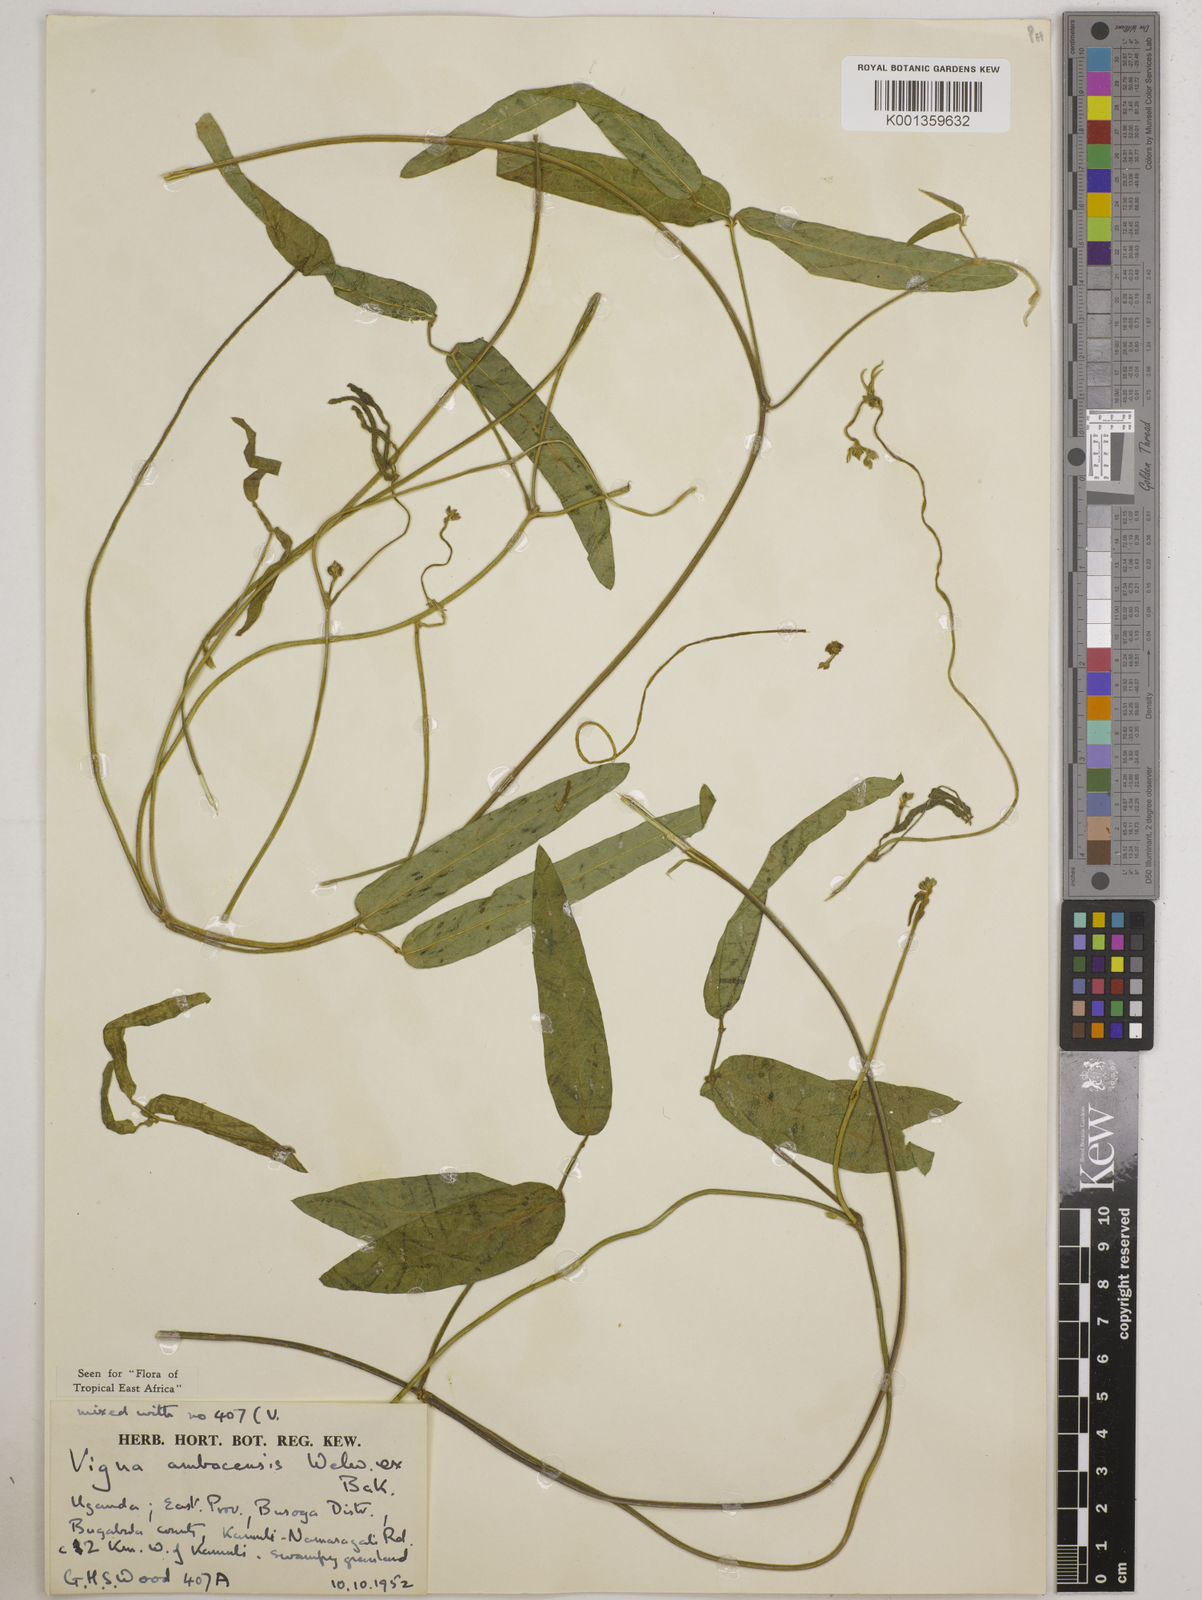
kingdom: Plantae
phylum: Tracheophyta
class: Magnoliopsida
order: Fabales
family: Fabaceae
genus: Vigna
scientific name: Vigna ambacensis
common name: Tsarkiyan zomo
